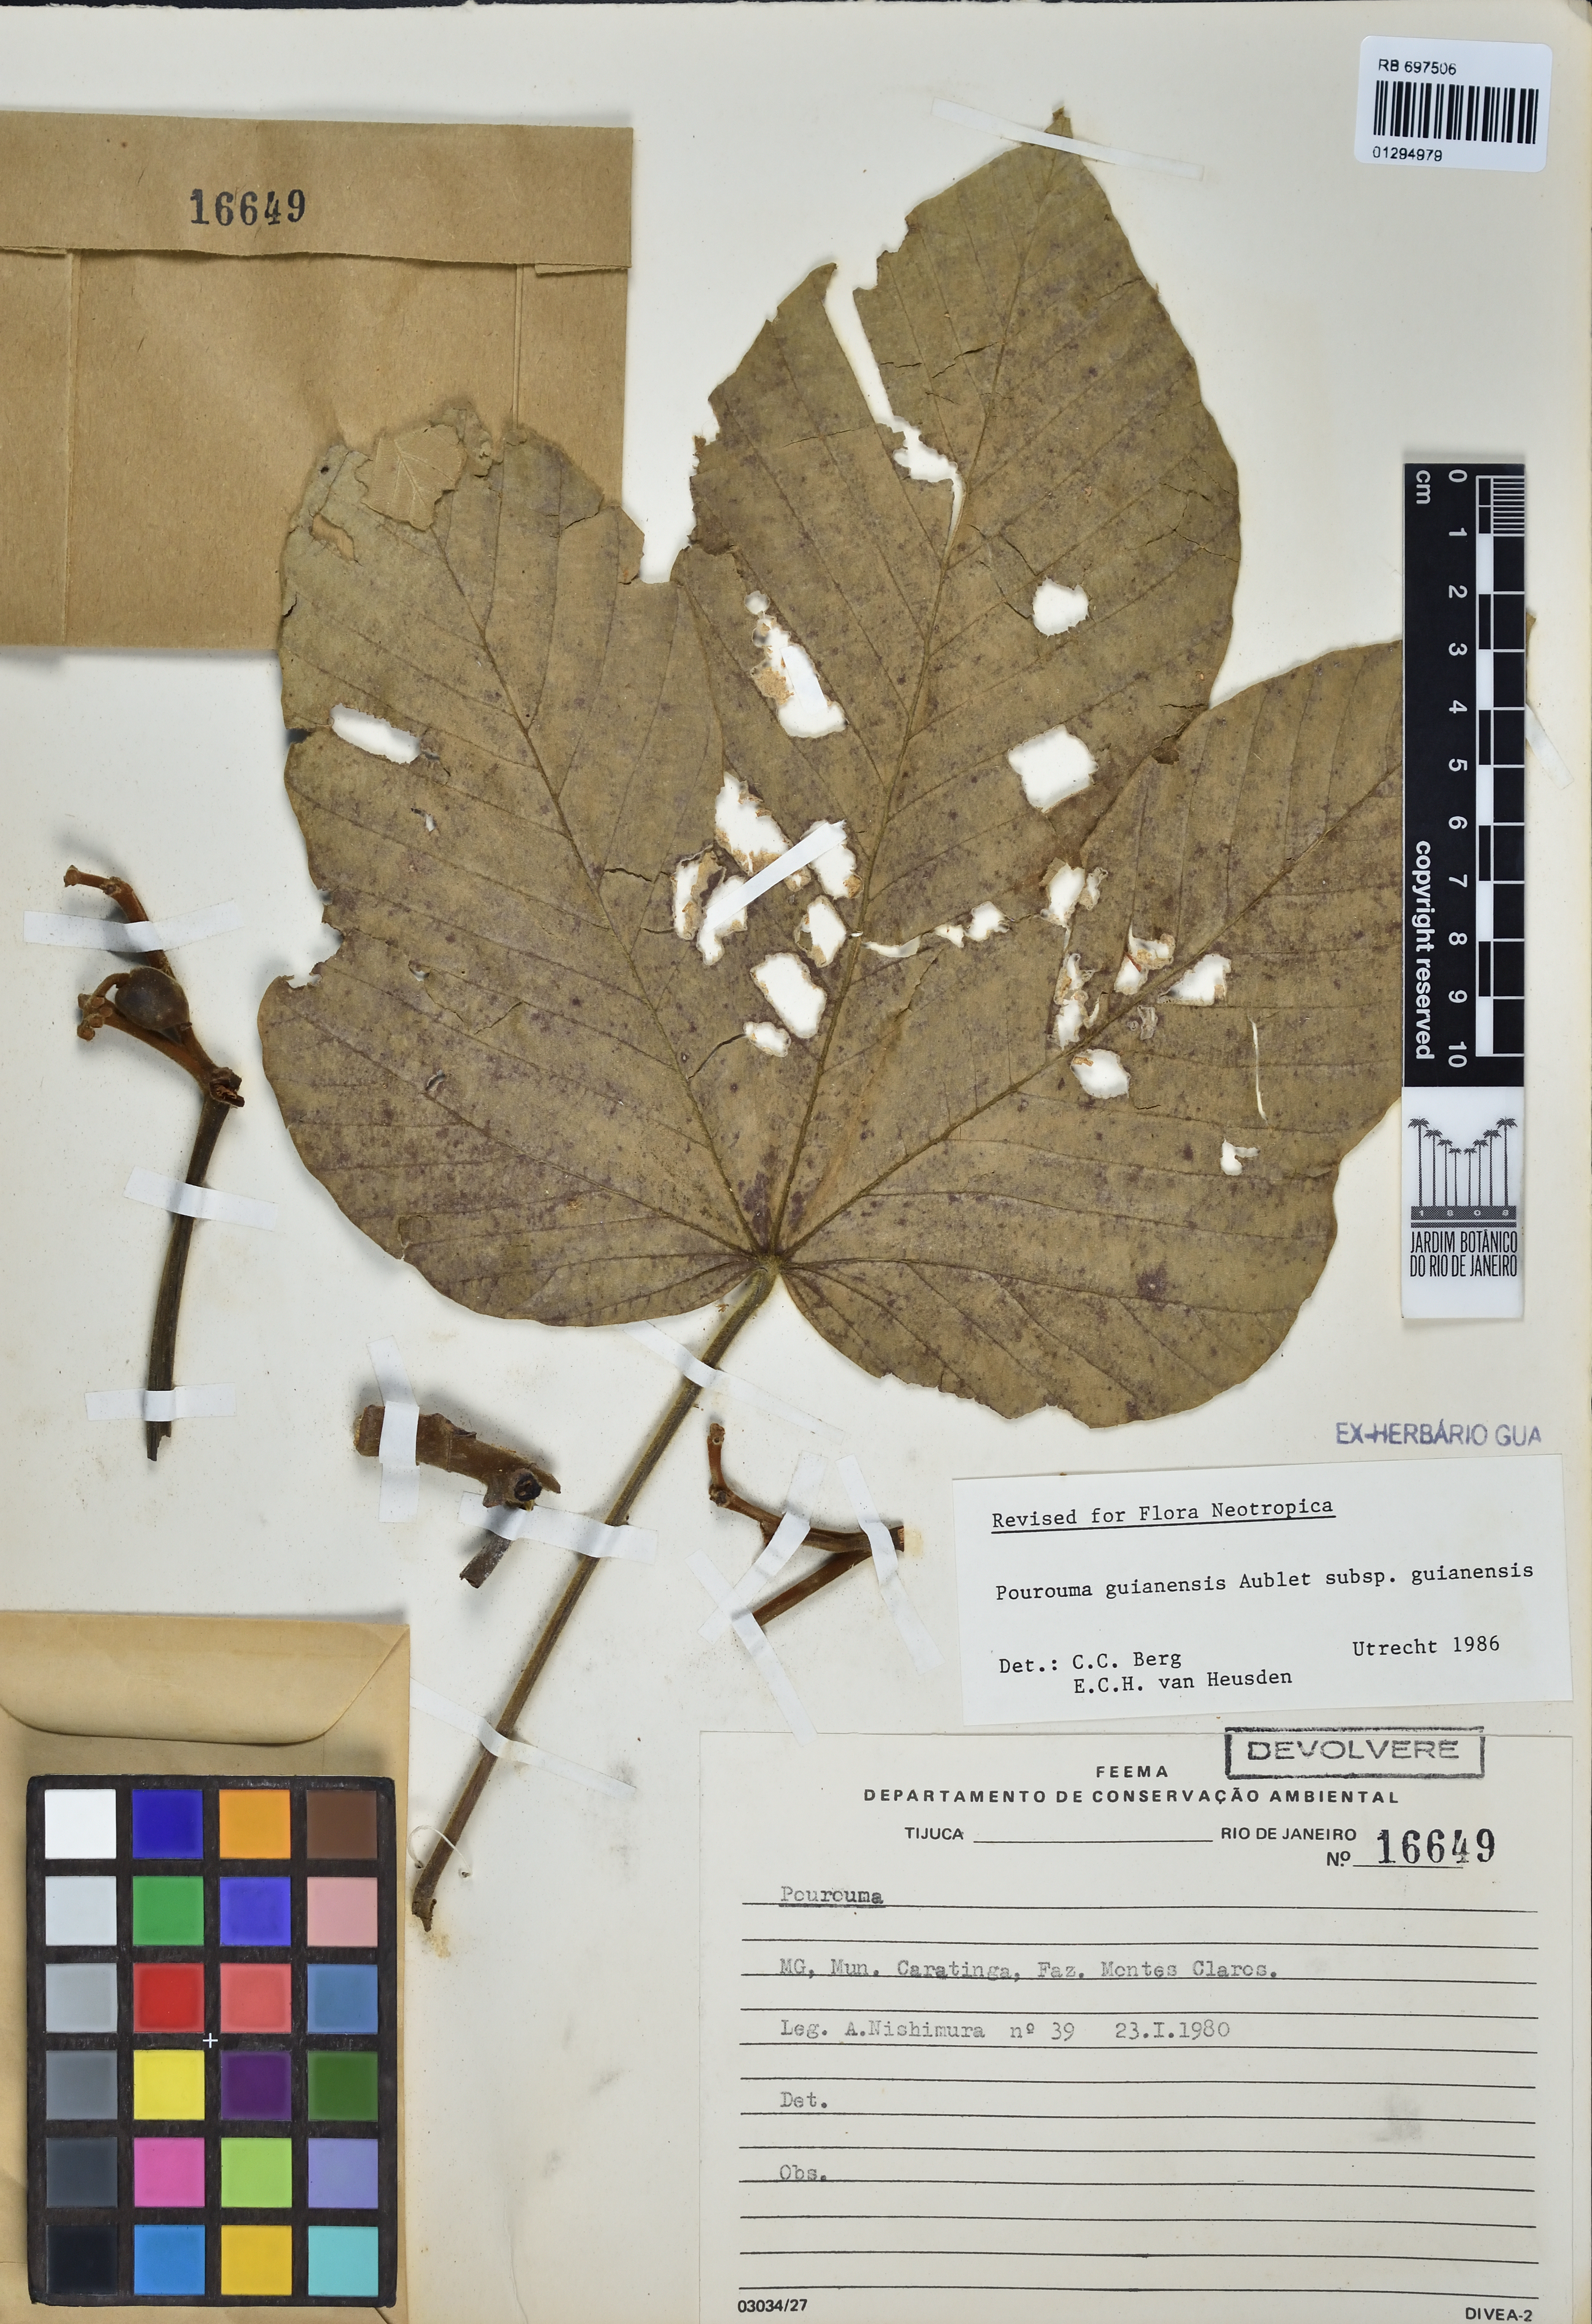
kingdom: Plantae
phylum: Tracheophyta
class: Magnoliopsida
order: Rosales
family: Urticaceae
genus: Pourouma
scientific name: Pourouma guianensis
